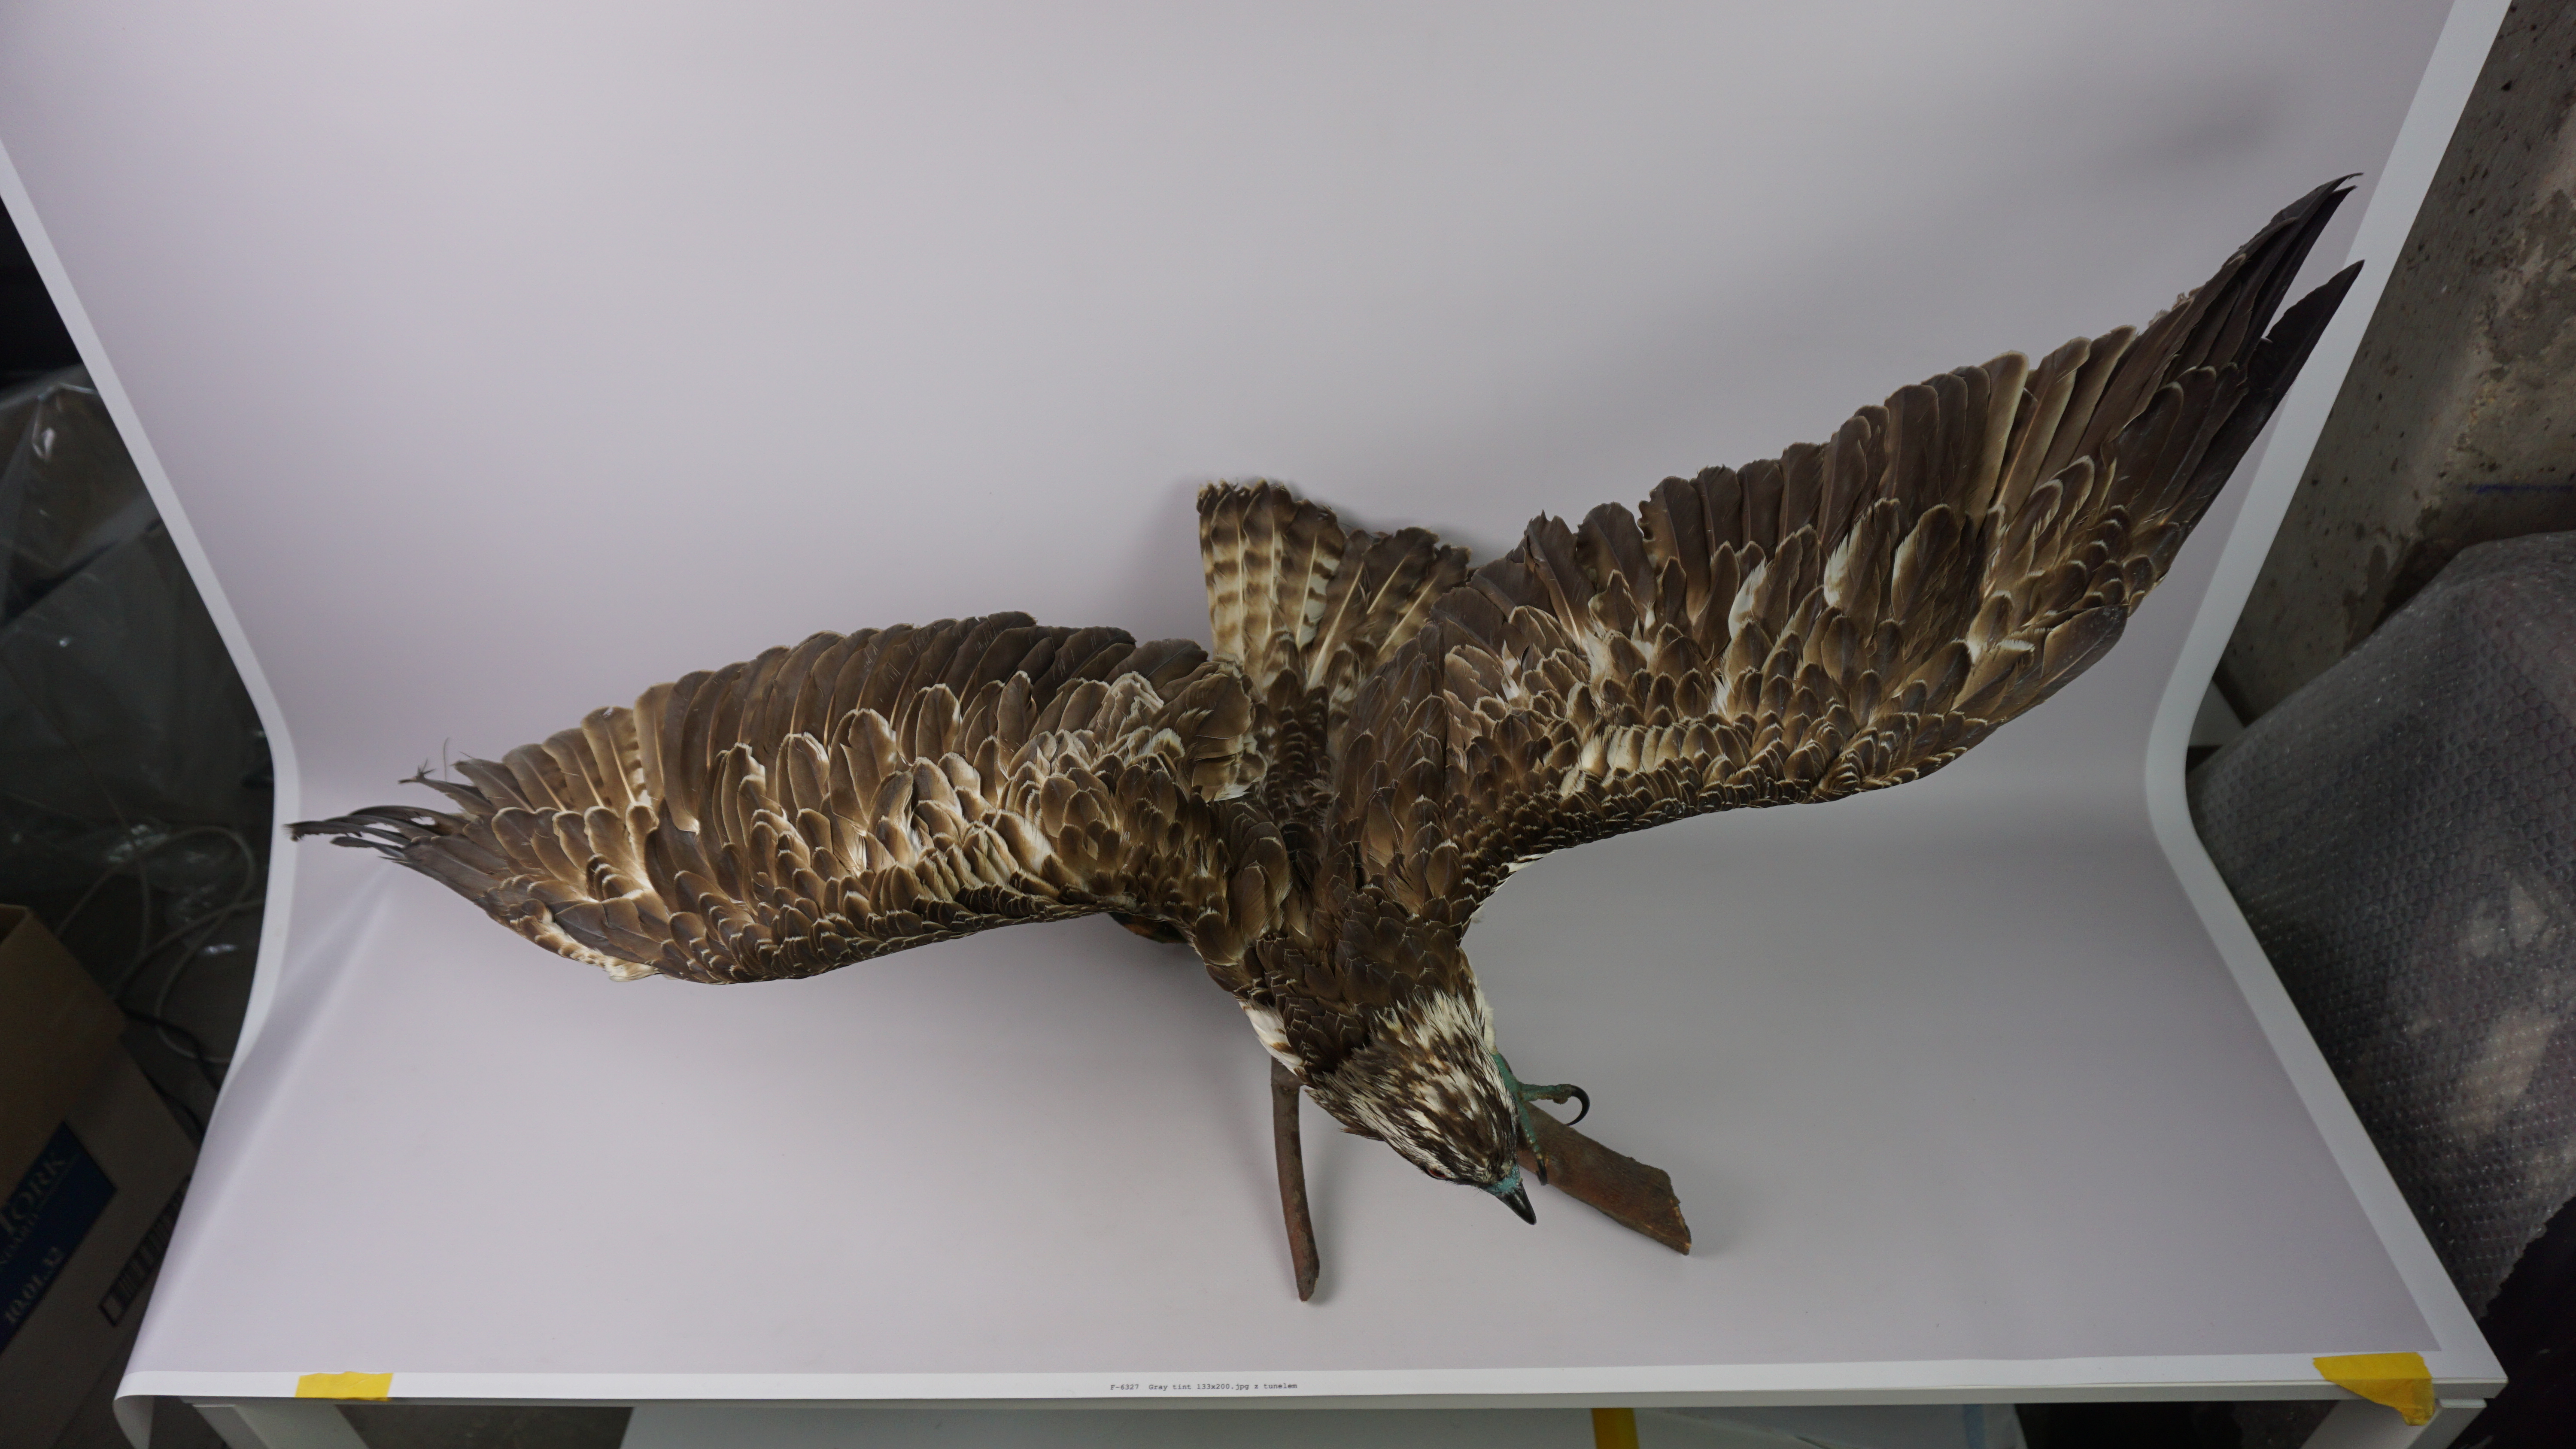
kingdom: Animalia
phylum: Chordata
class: Aves
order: Accipitriformes
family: Pandionidae
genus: Pandion
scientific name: Pandion haliaetus
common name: Osprey
